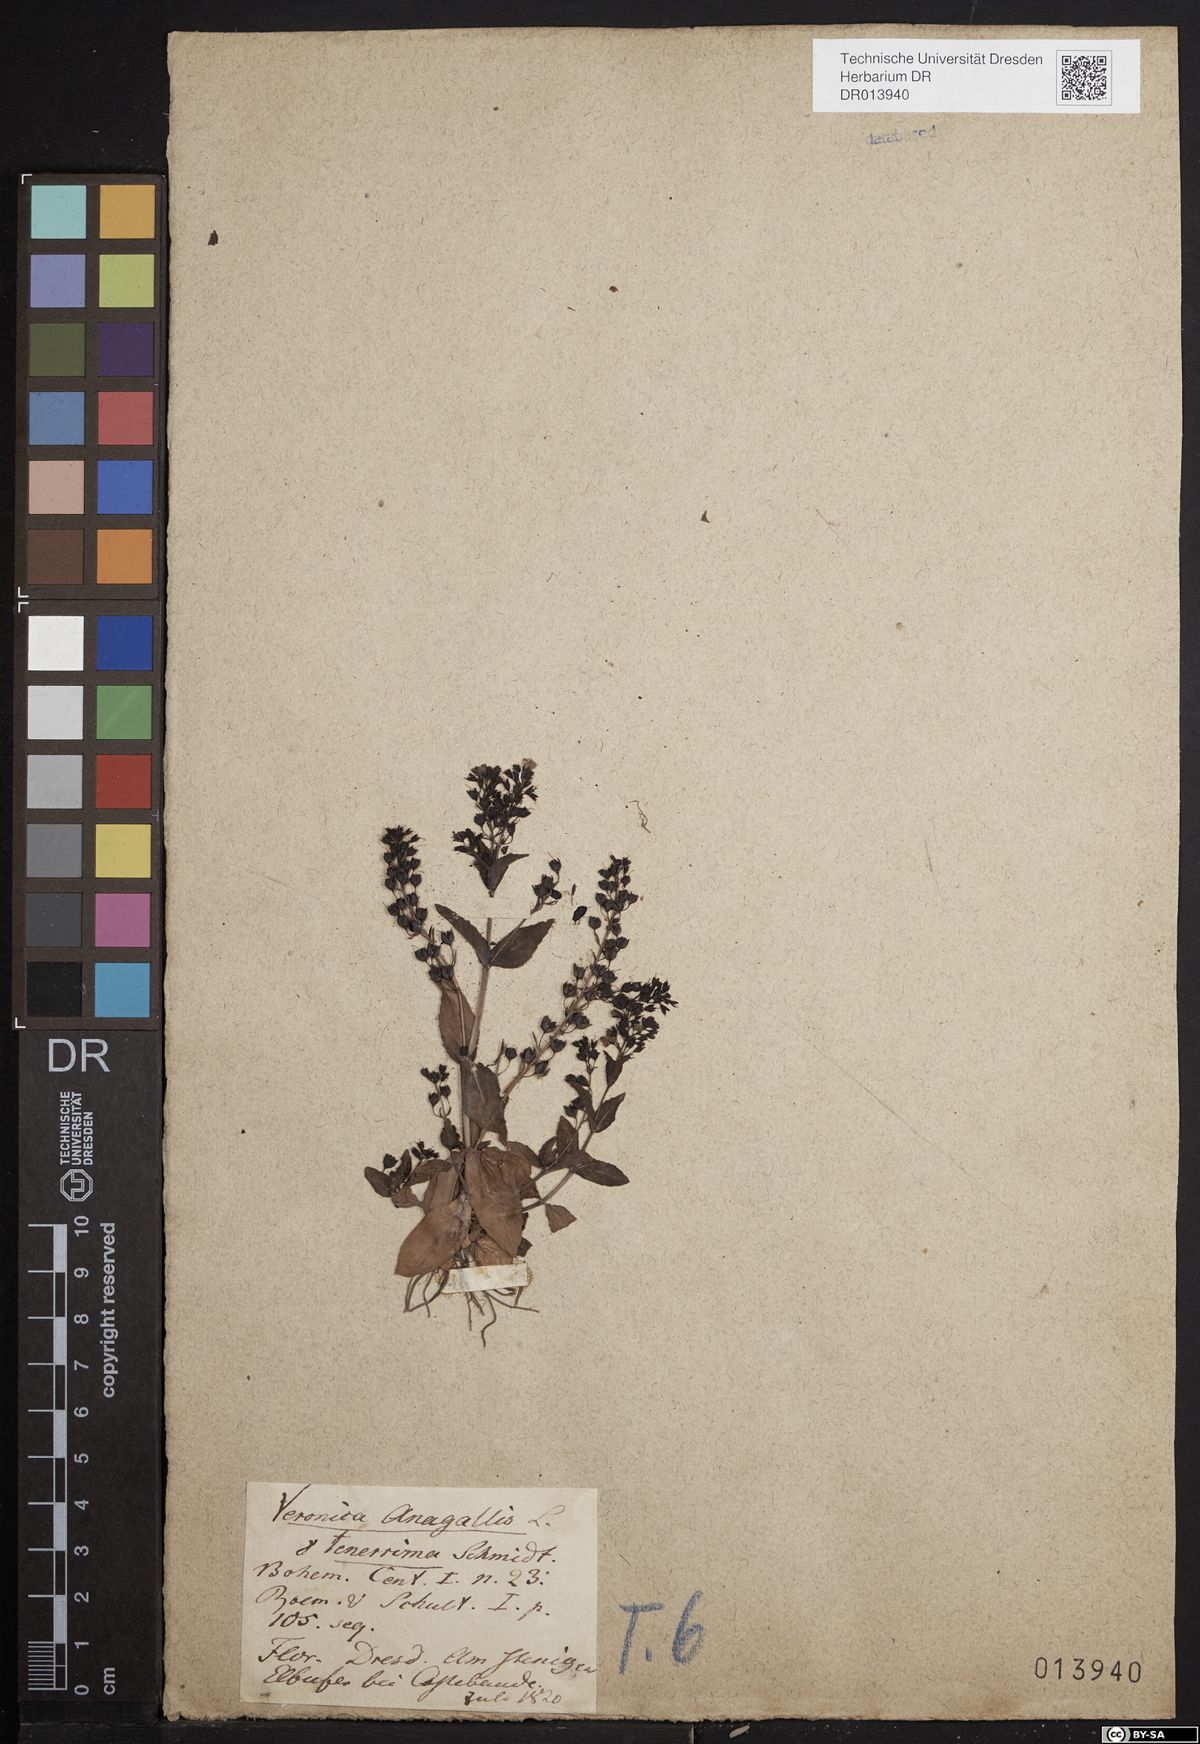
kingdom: Plantae
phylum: Tracheophyta
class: Magnoliopsida
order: Lamiales
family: Plantaginaceae
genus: Veronica
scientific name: Veronica anagallis-aquatica
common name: Water speedwell
